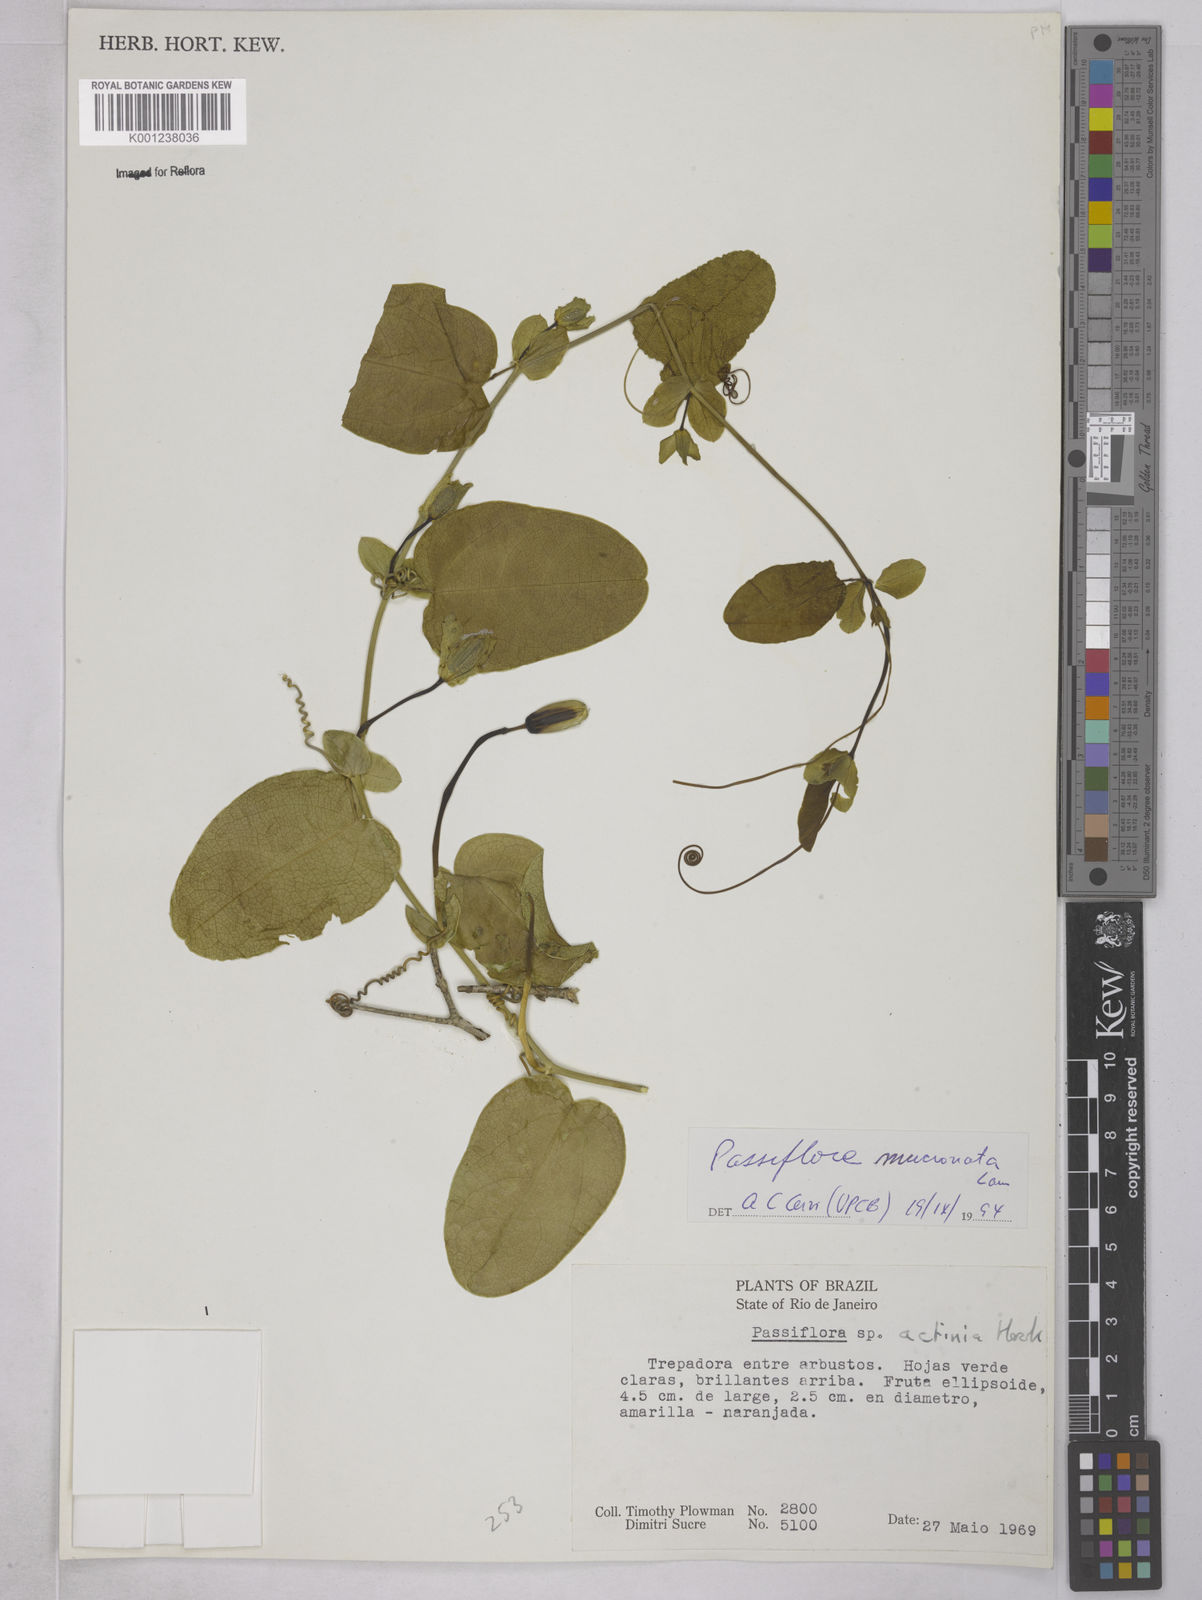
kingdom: Plantae
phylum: Tracheophyta
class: Magnoliopsida
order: Malpighiales
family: Passifloraceae
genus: Passiflora
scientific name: Passiflora mucronata
